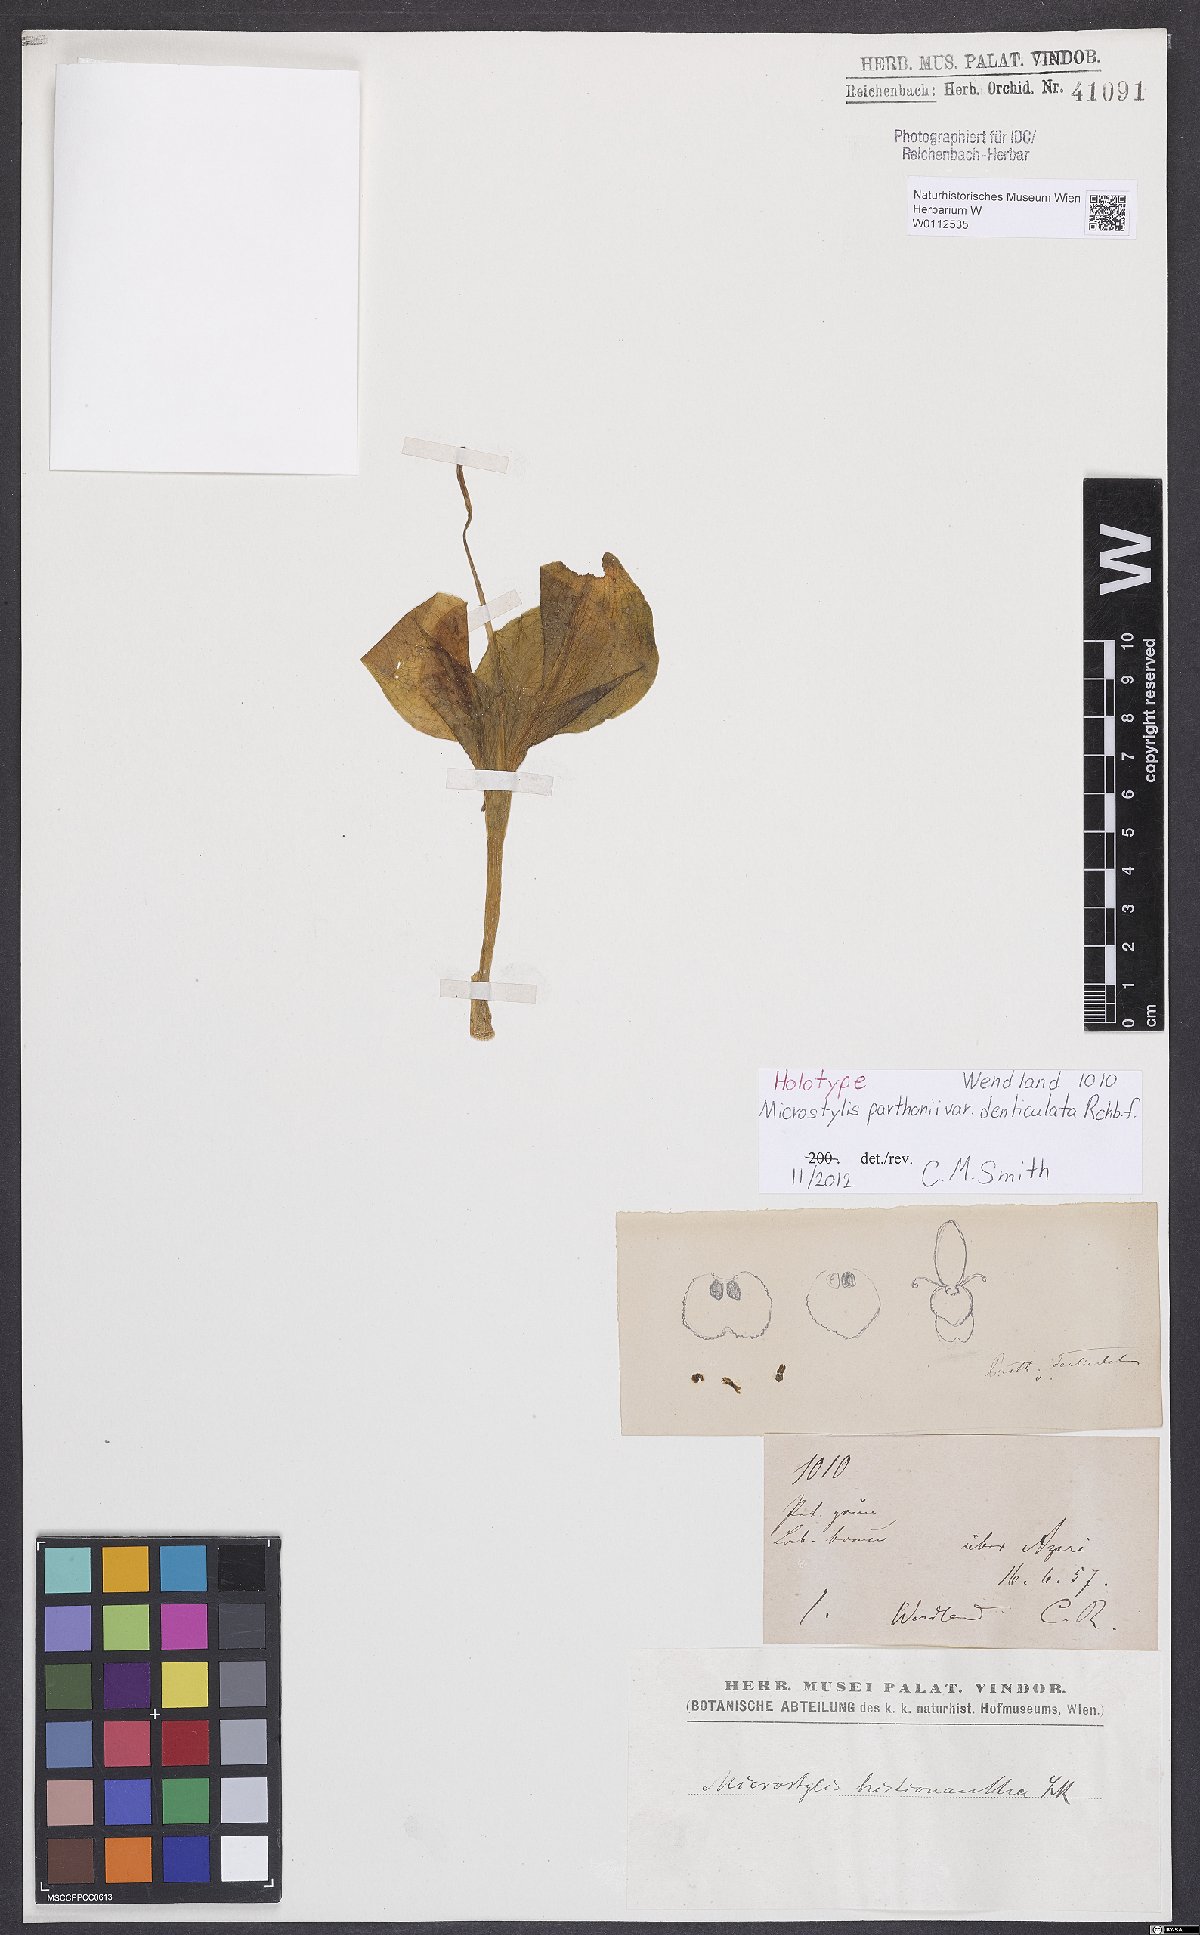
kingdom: Plantae
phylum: Tracheophyta
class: Liliopsida
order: Asparagales
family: Orchidaceae
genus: Malaxis
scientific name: Malaxis wercklei
